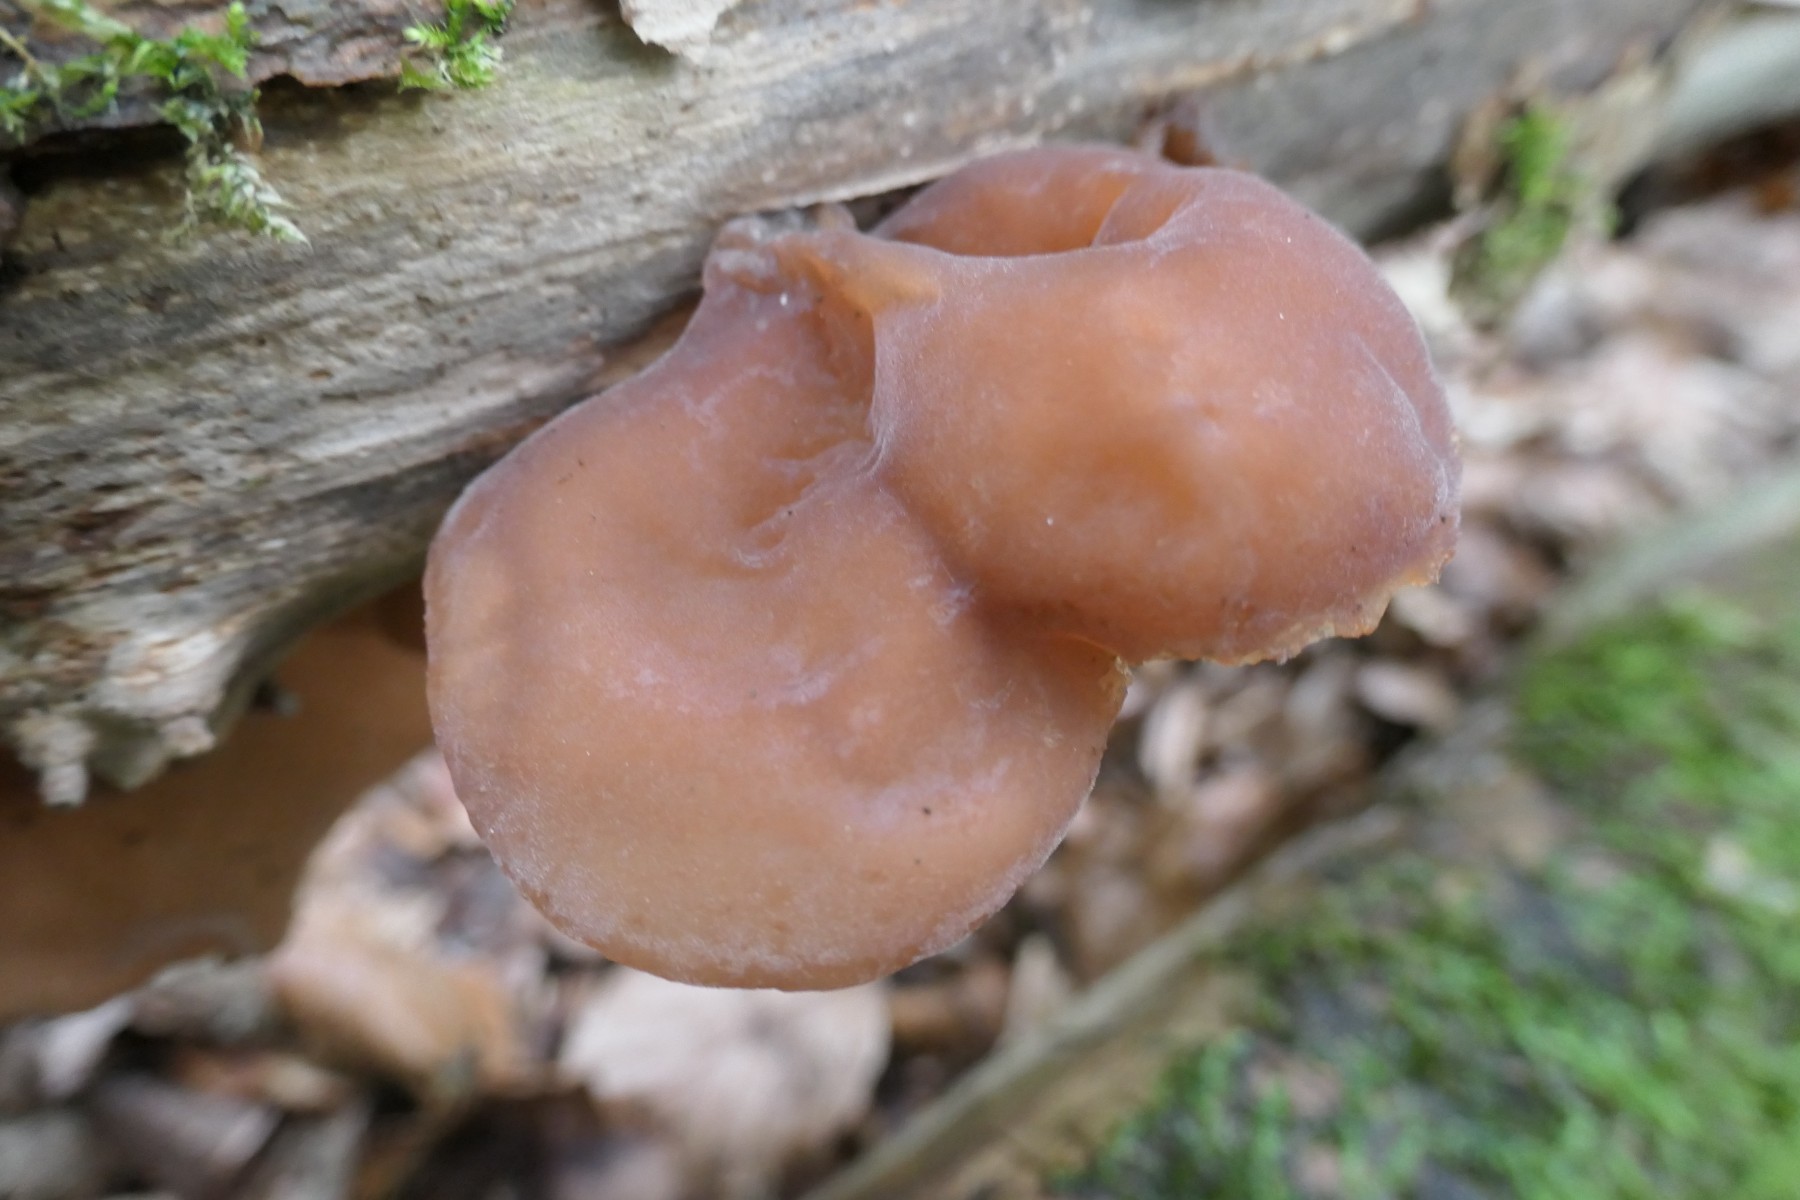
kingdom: Fungi
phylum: Basidiomycota
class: Agaricomycetes
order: Auriculariales
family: Auriculariaceae
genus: Auricularia
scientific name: Auricularia auricula-judae
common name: almindelig judasøre
